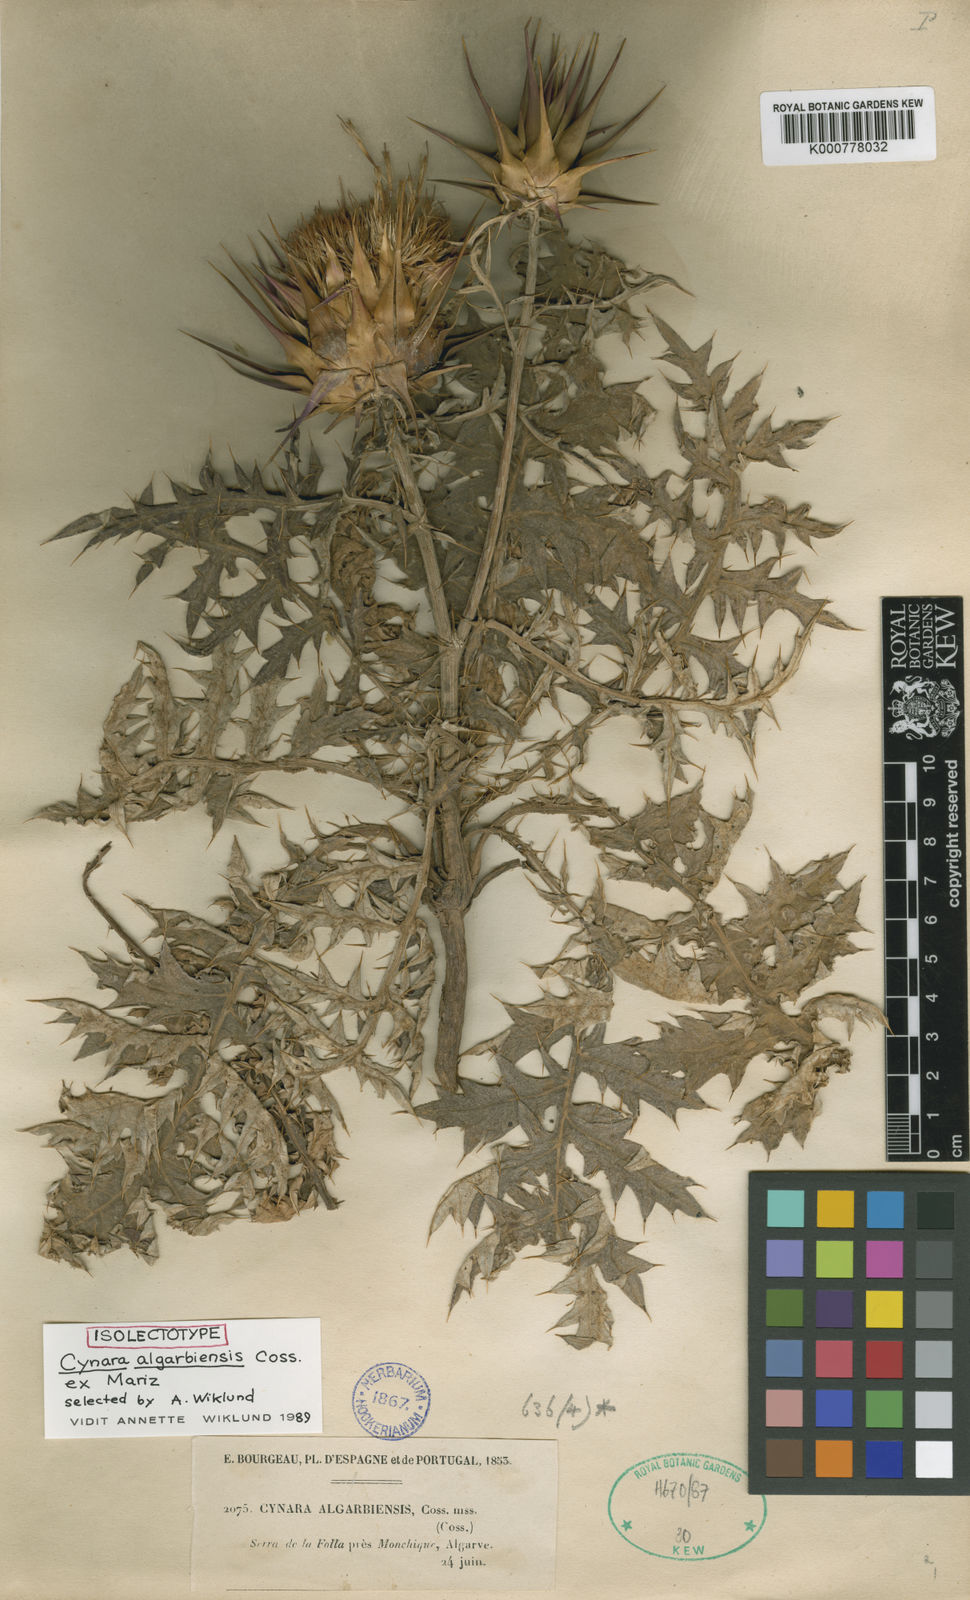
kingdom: Plantae
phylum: Tracheophyta
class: Magnoliopsida
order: Asterales
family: Asteraceae
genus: Cynara
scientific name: Cynara algarbiensis
